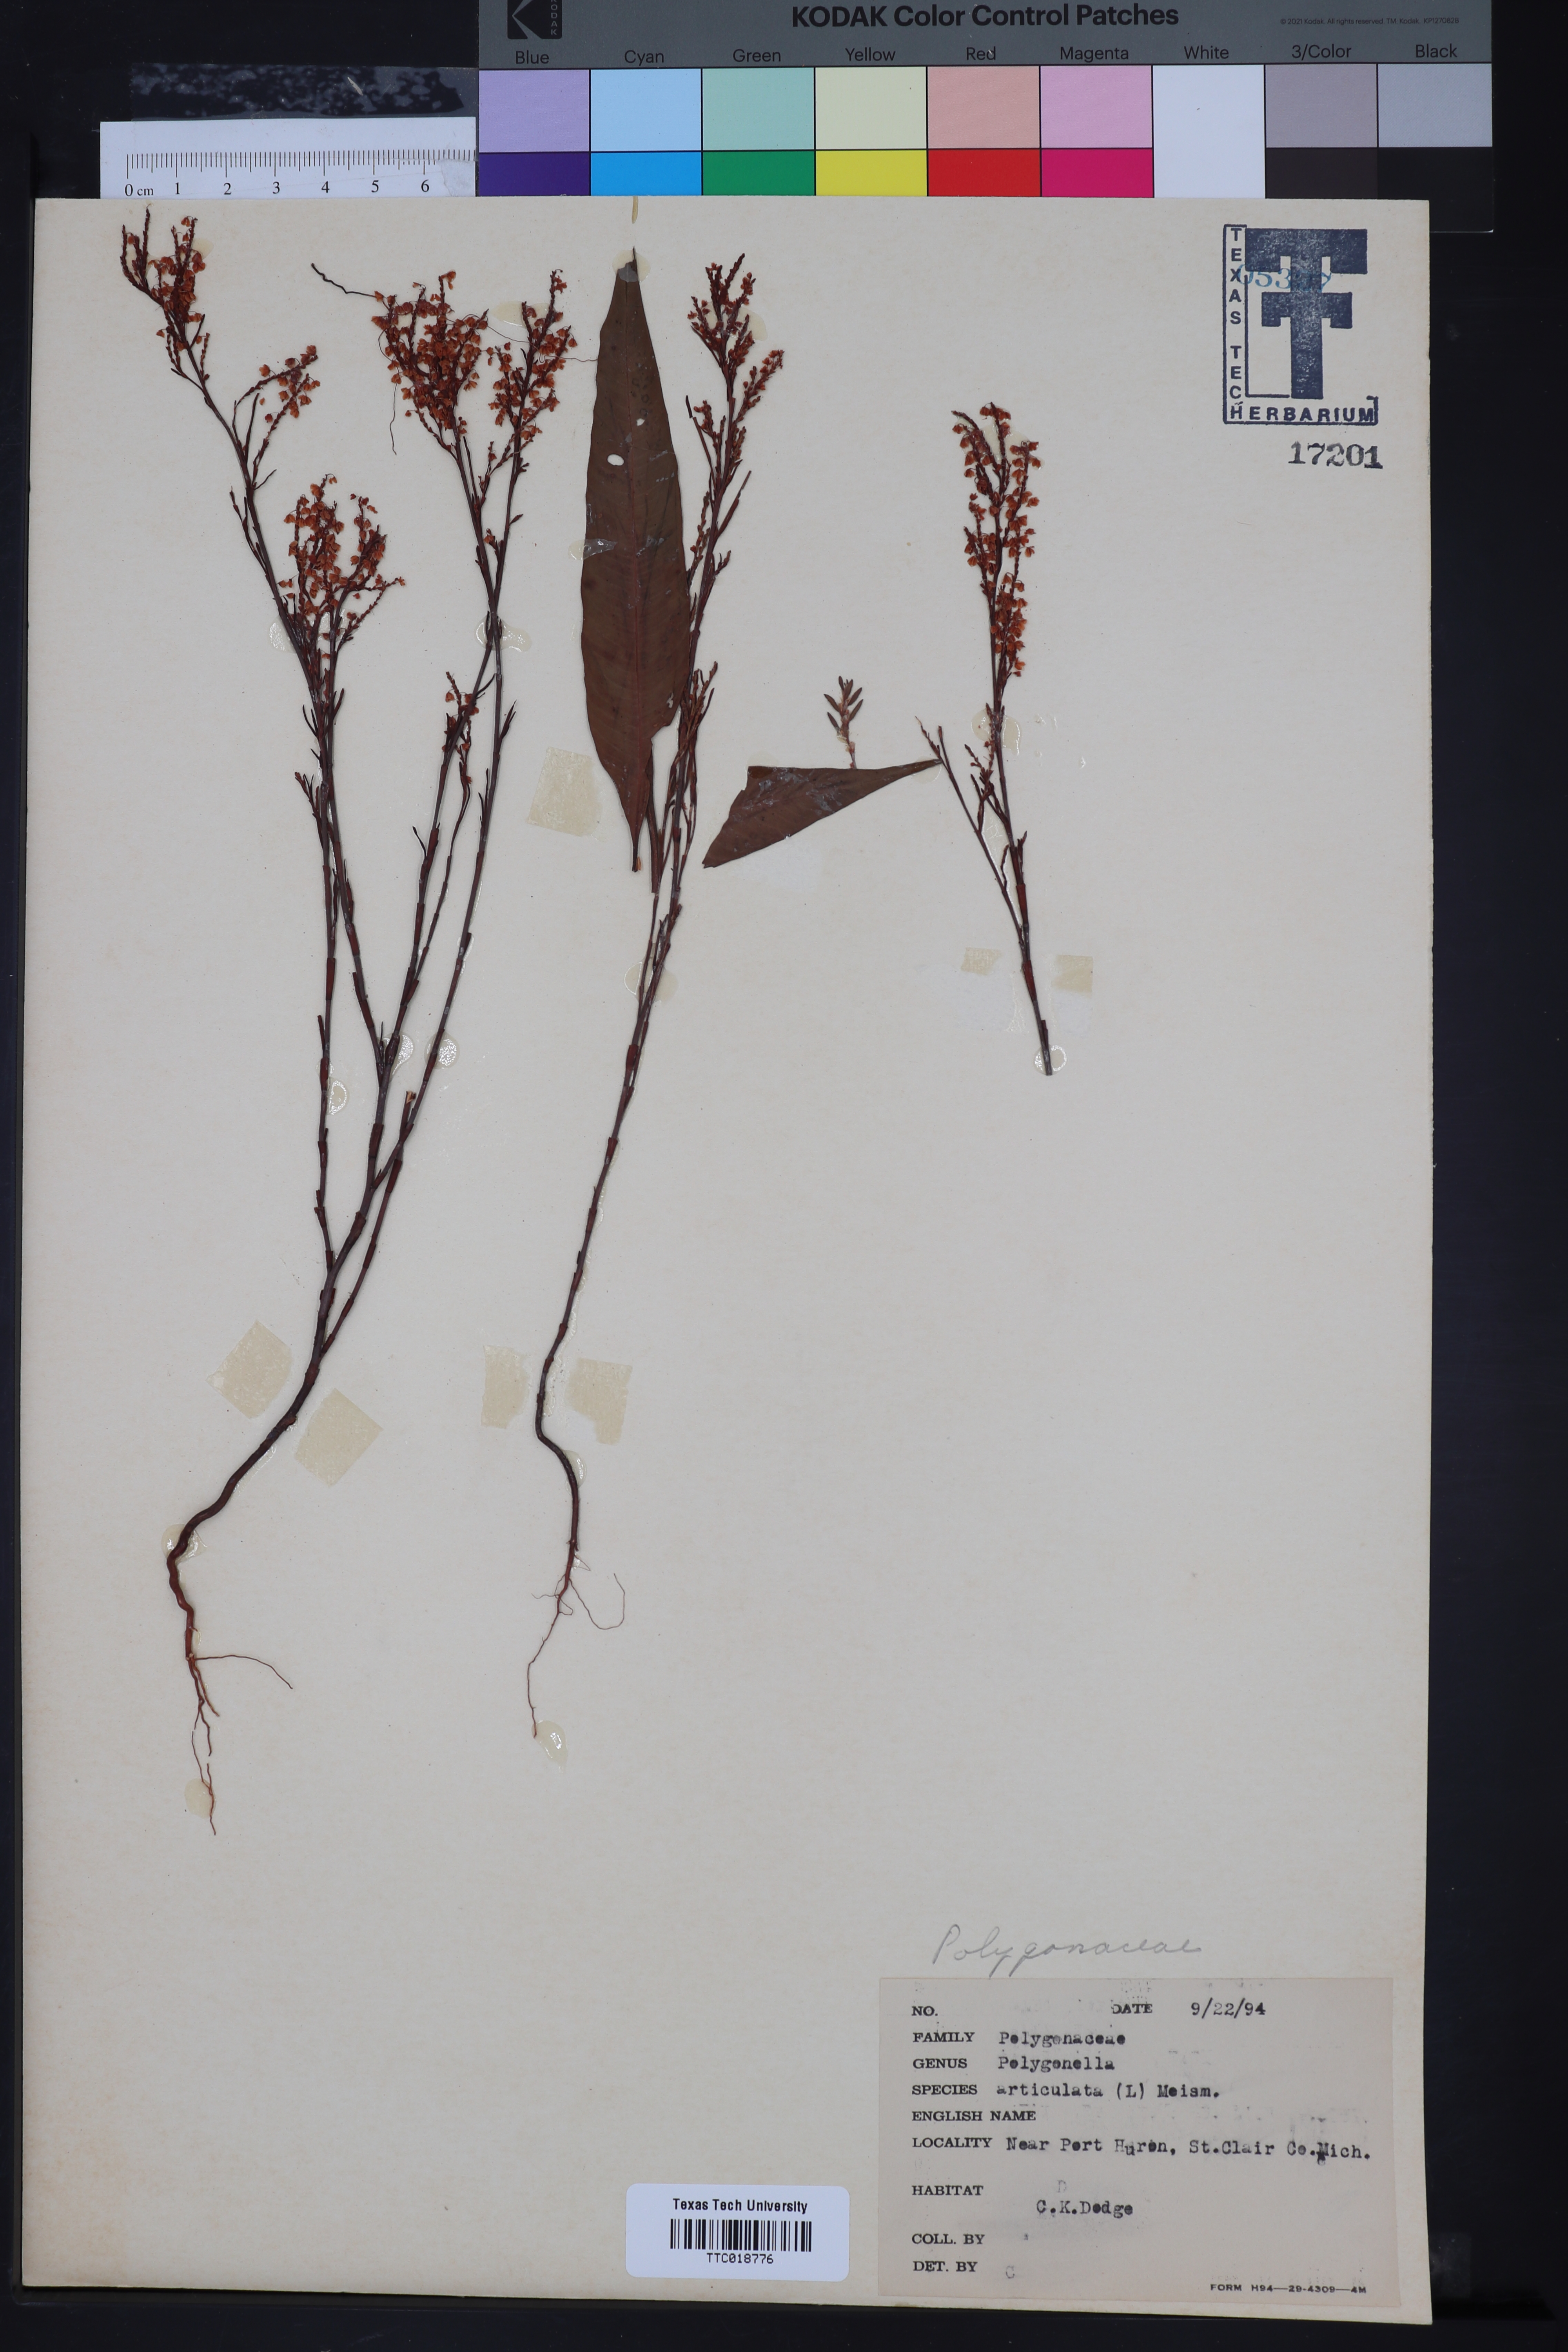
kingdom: Plantae
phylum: Tracheophyta
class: Magnoliopsida
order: Caryophyllales
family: Polygonaceae
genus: Polygonella
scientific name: Polygonella articulata
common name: Coastal jointweed
